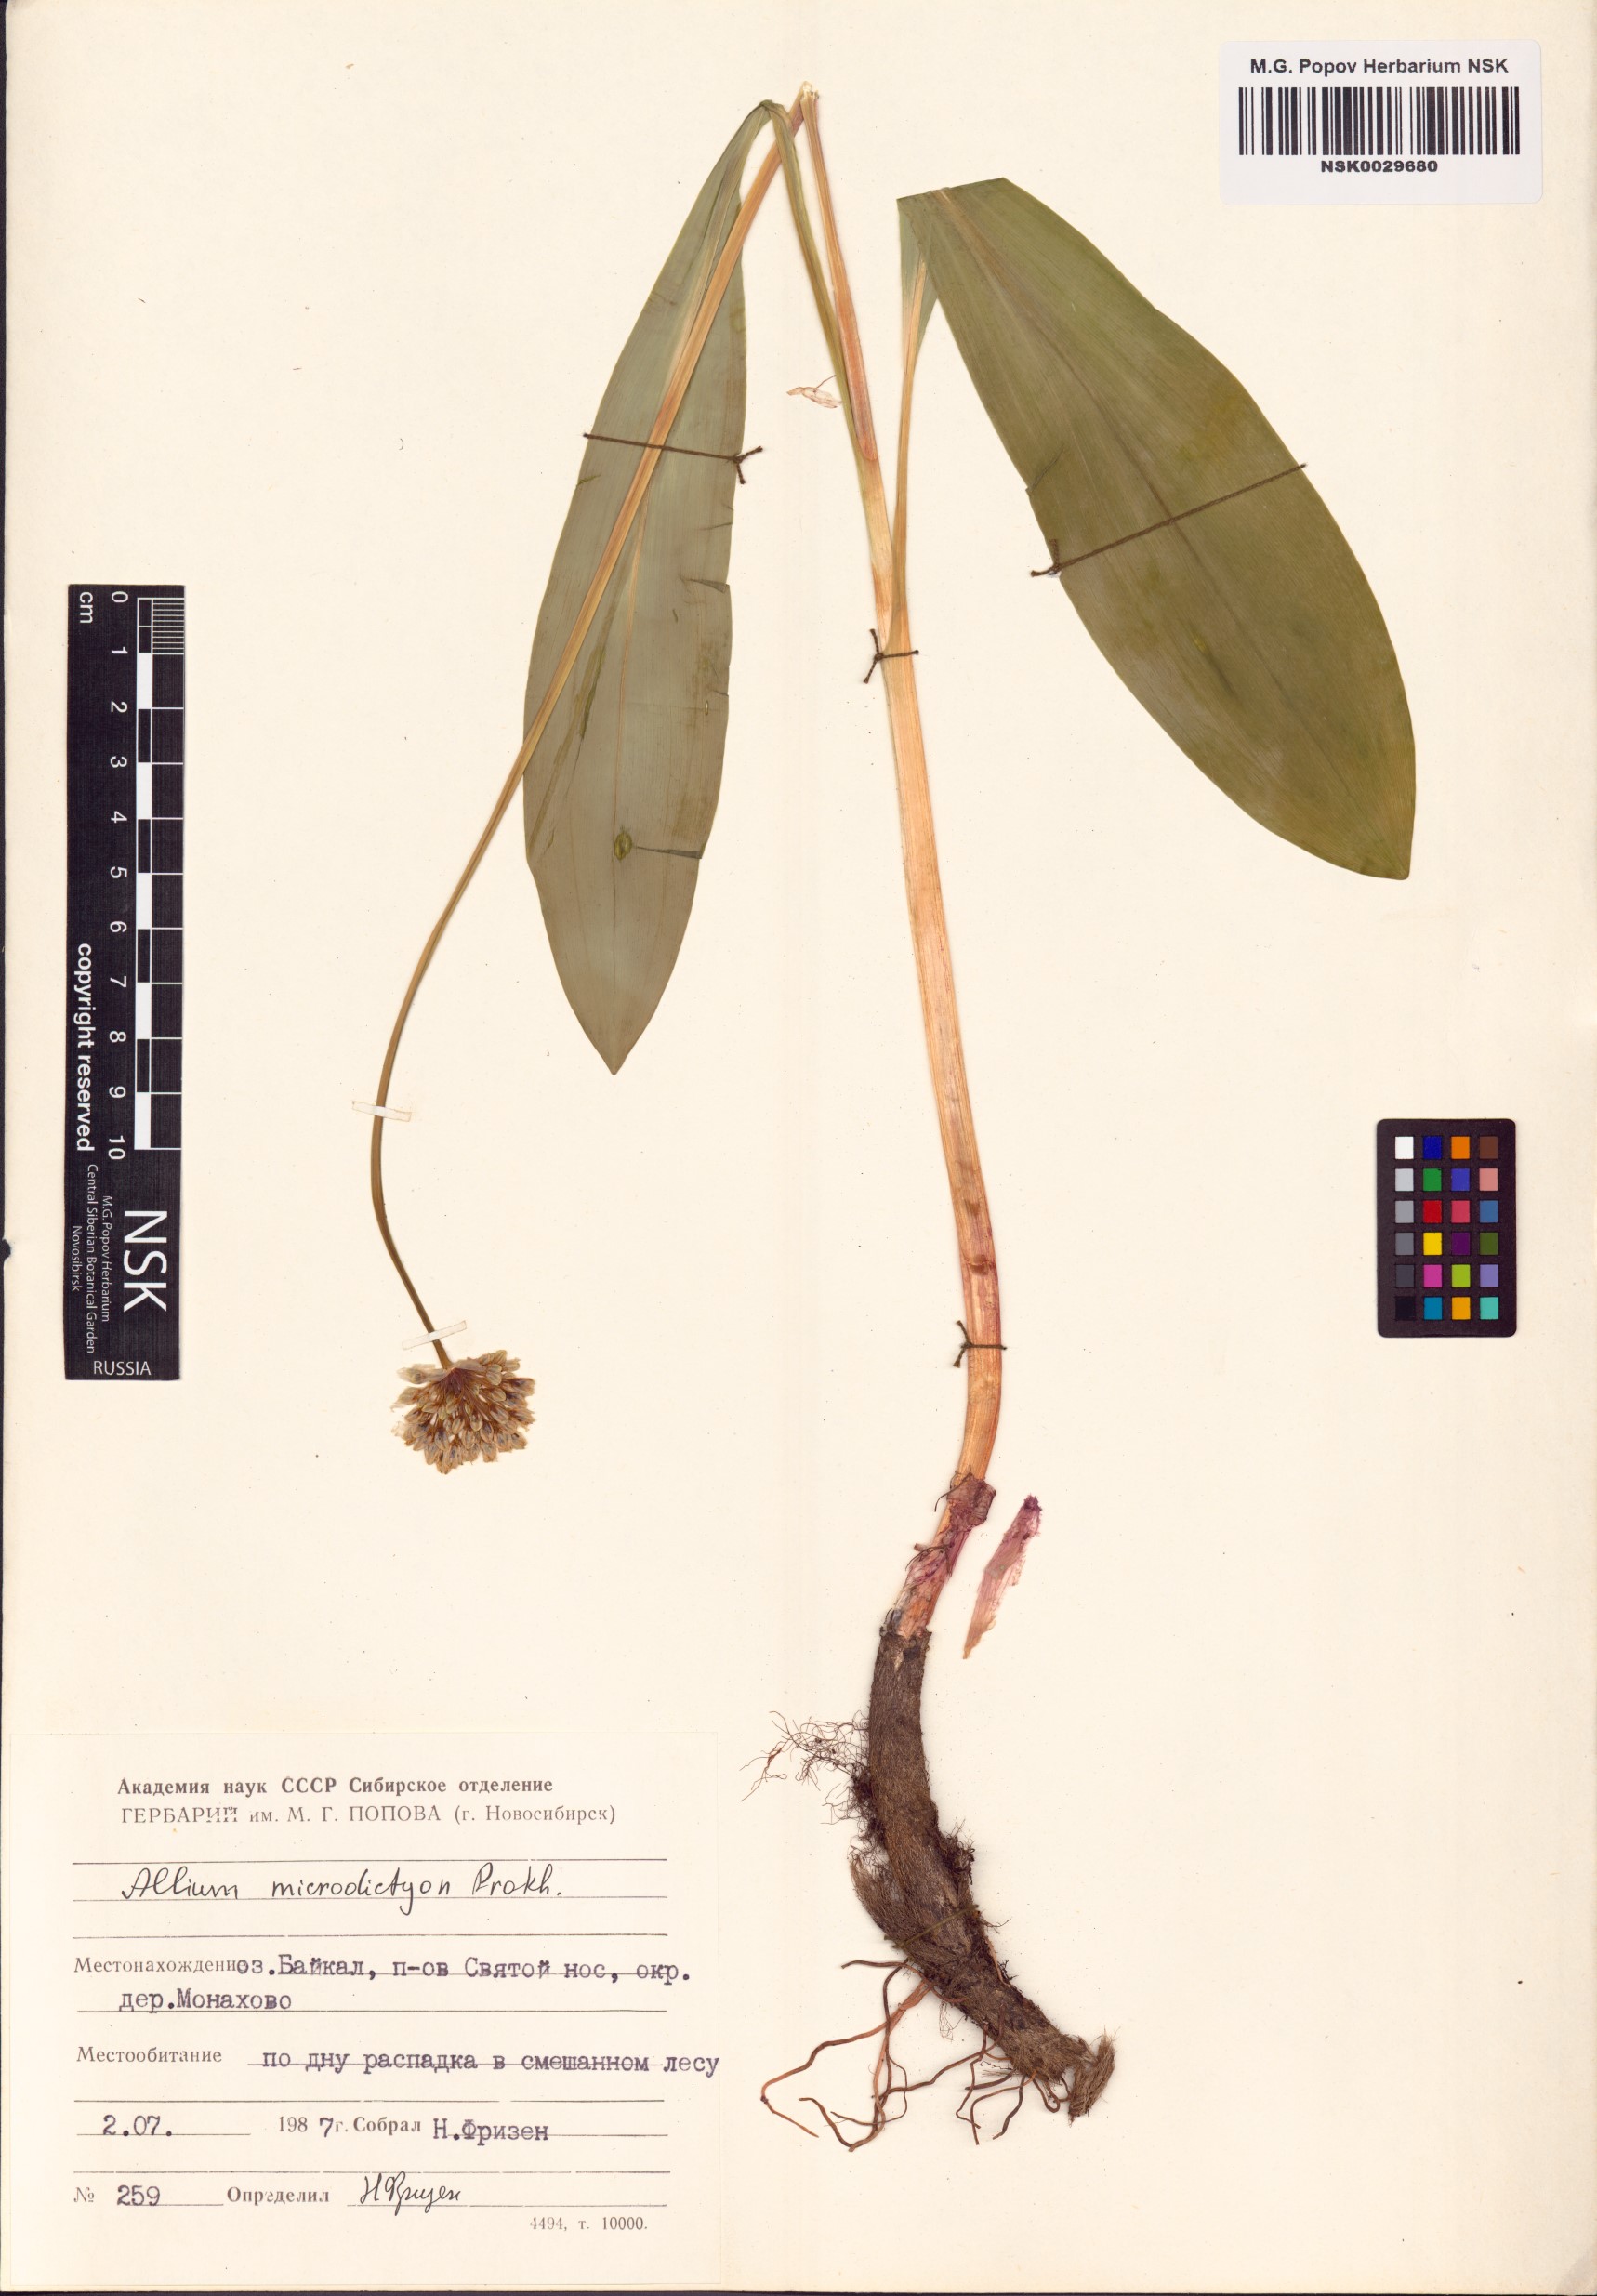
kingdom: Plantae
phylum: Tracheophyta
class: Liliopsida
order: Asparagales
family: Amaryllidaceae
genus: Allium
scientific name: Allium microdictyon
